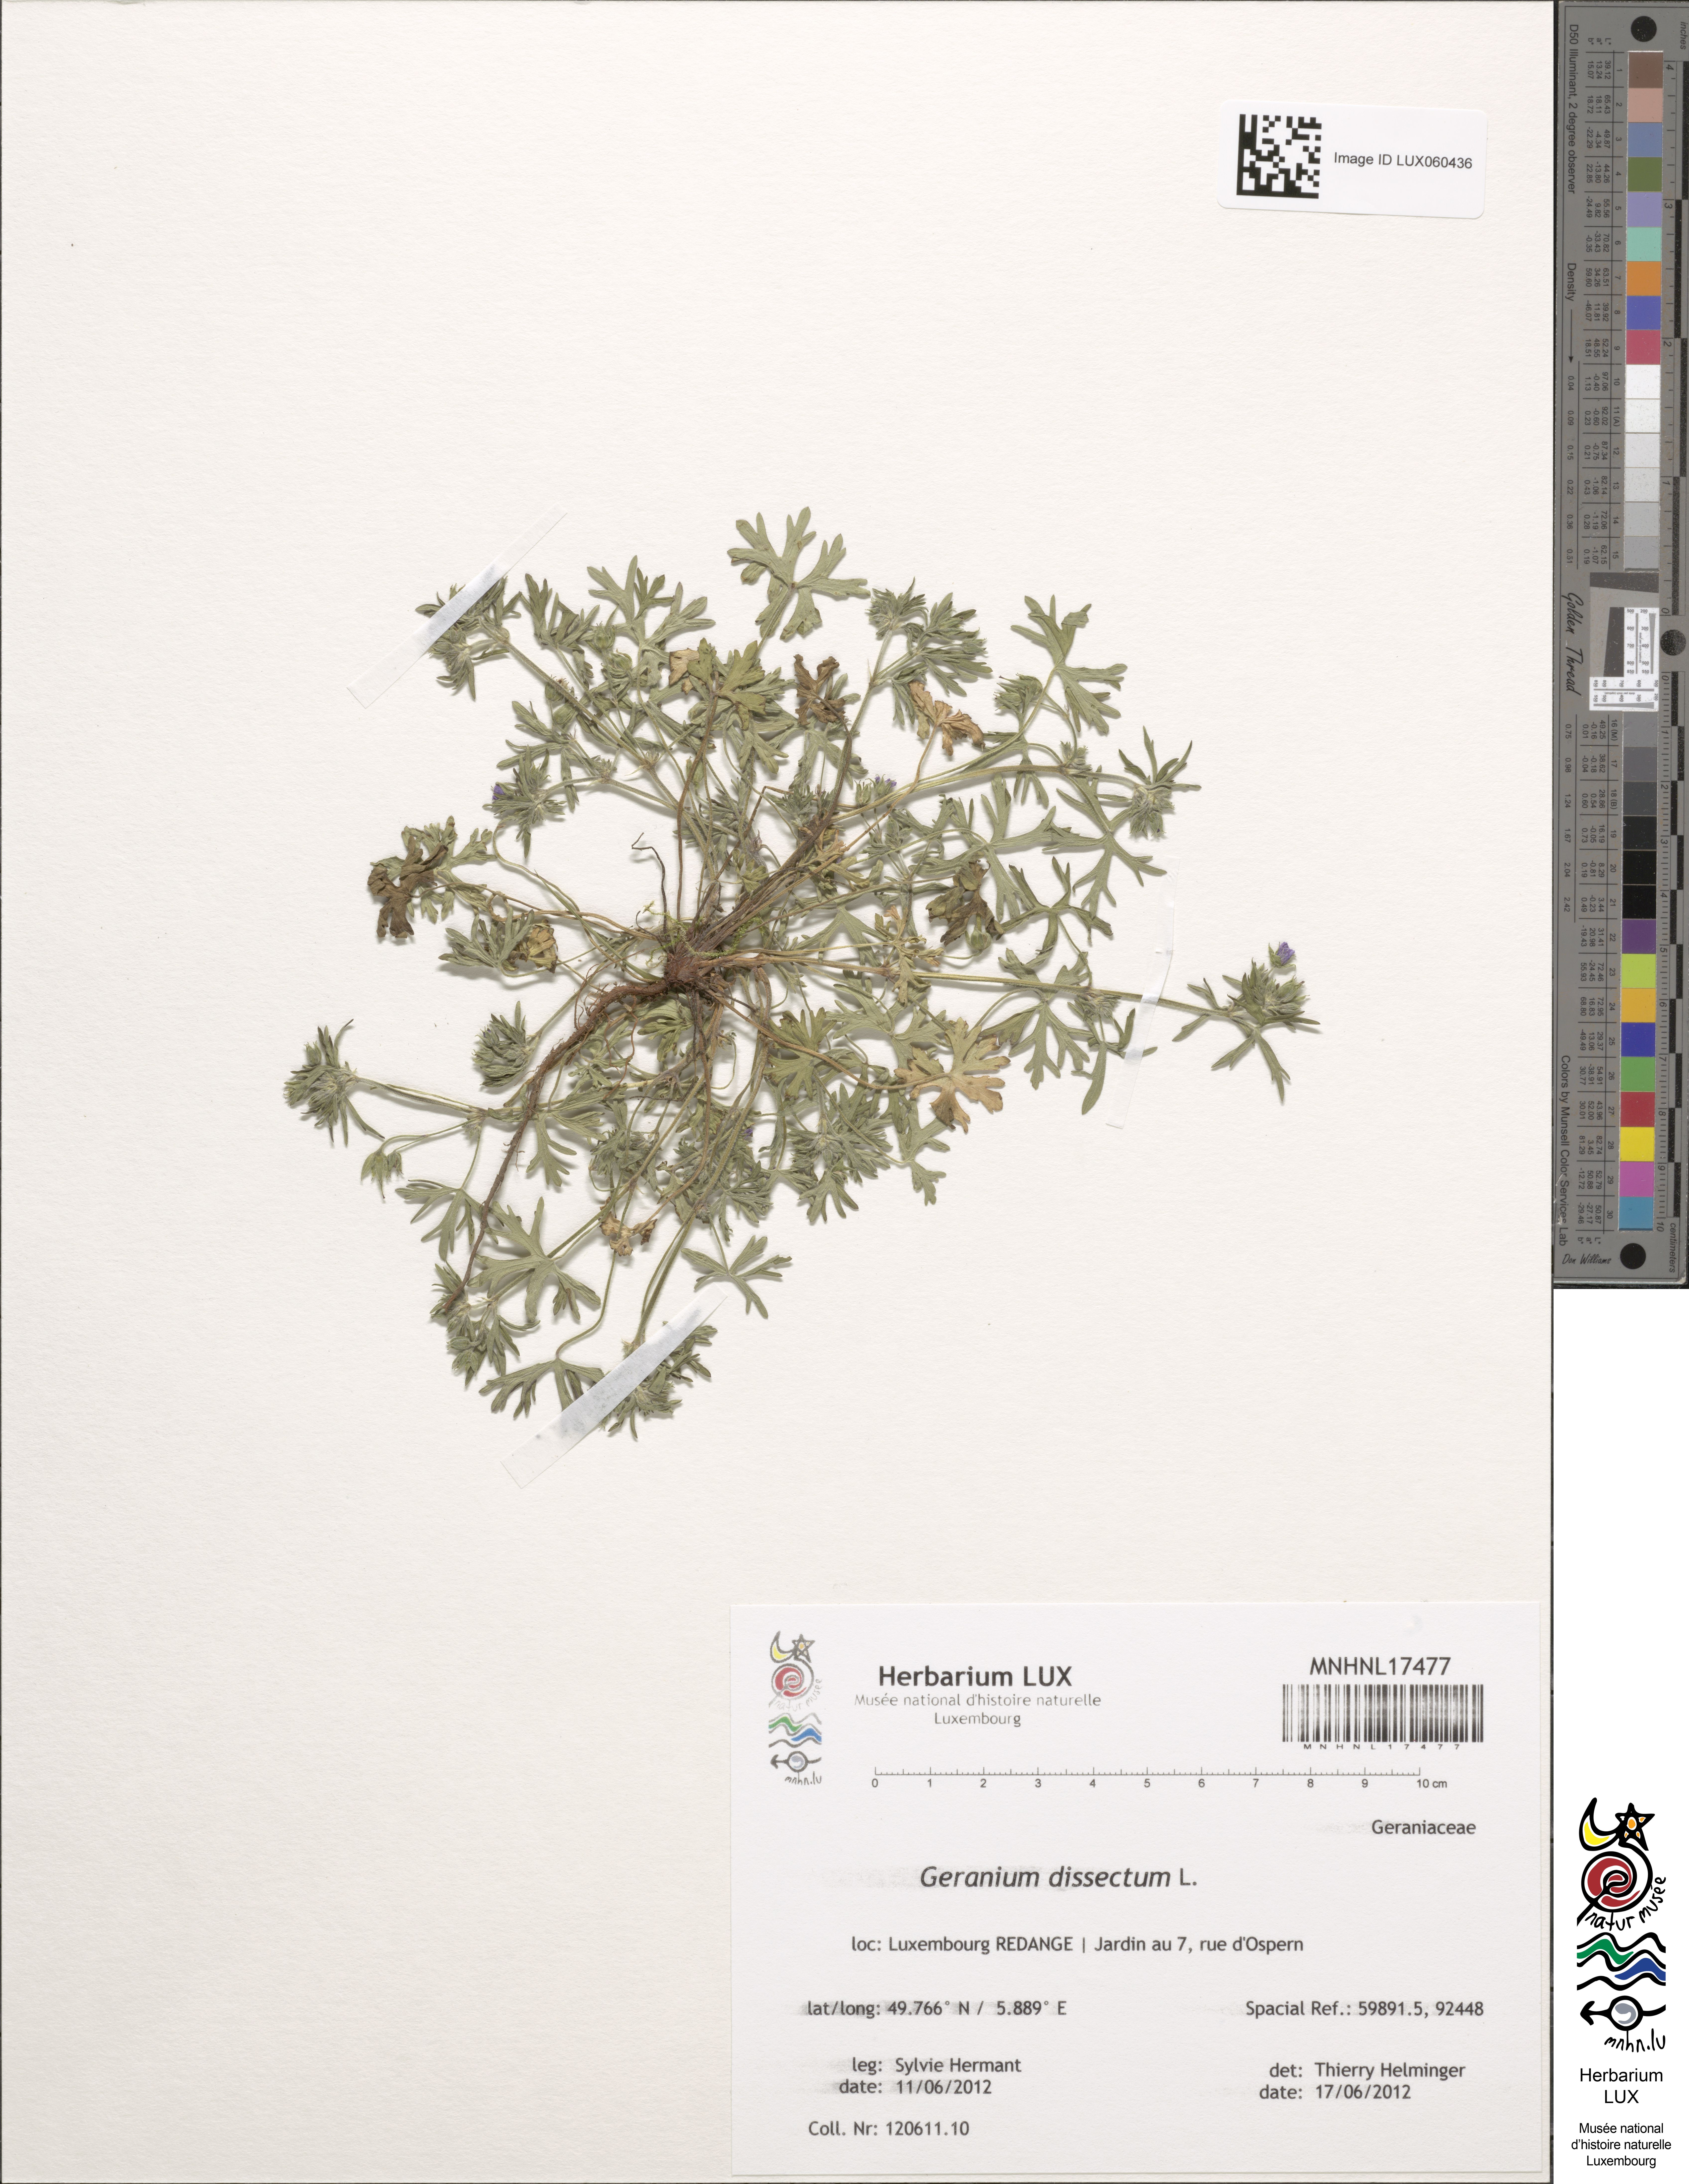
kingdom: Plantae
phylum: Tracheophyta
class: Magnoliopsida
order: Geraniales
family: Geraniaceae
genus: Geranium
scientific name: Geranium dissectum
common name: Cut-leaved crane's-bill
